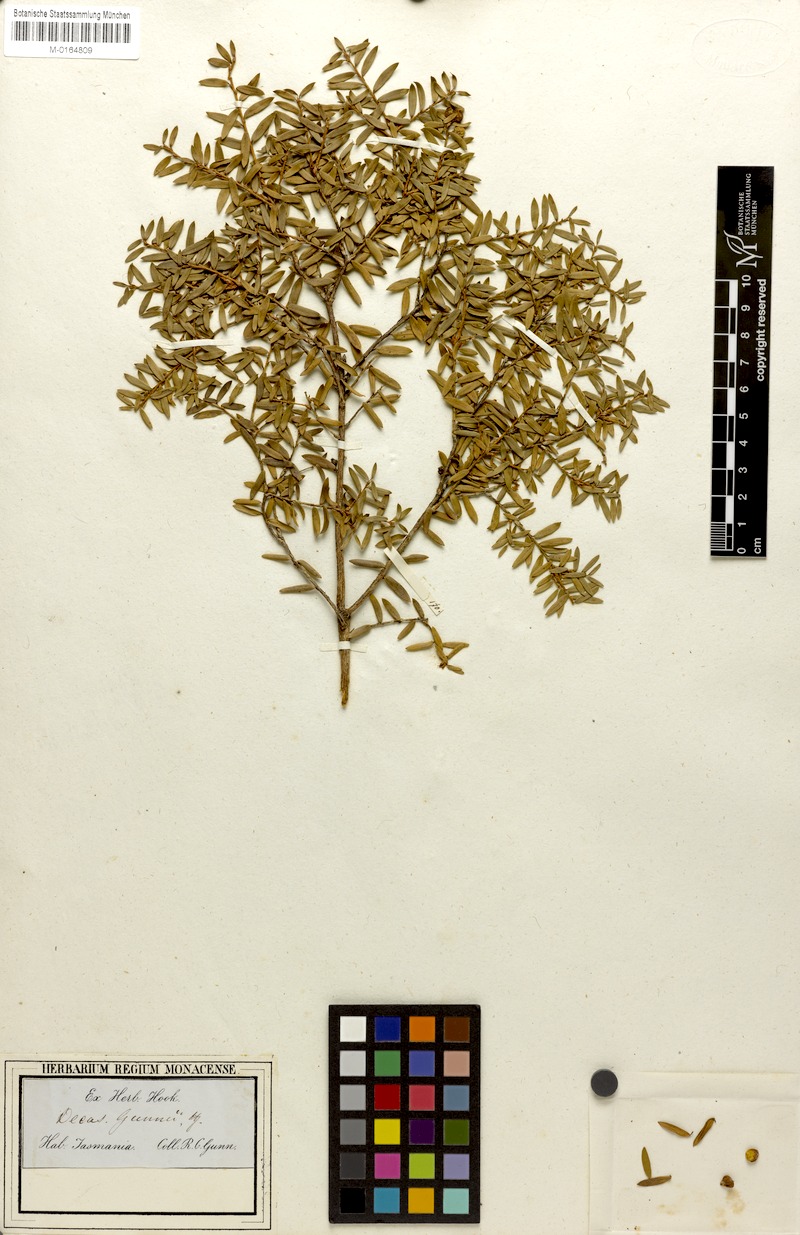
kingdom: Plantae
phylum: Tracheophyta
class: Magnoliopsida
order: Ericales
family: Ericaceae
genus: Trochocarpa
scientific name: Trochocarpa gunnii
